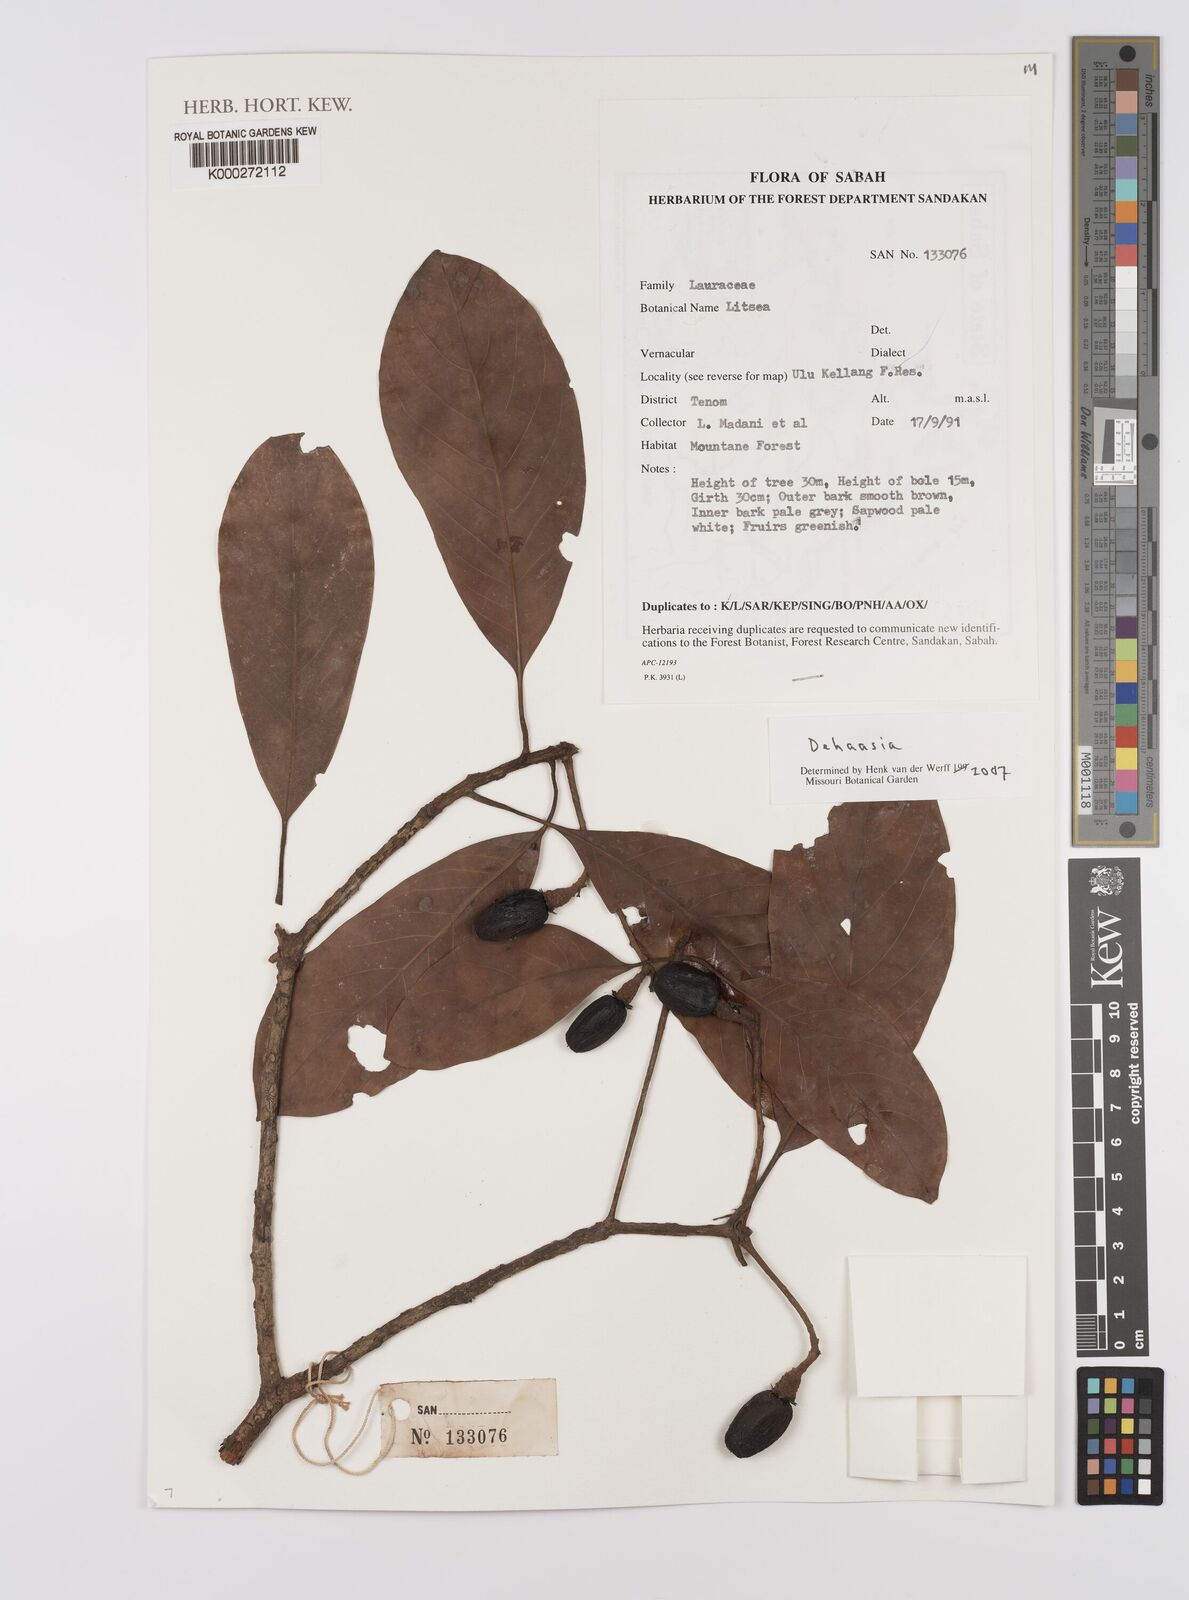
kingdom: Plantae
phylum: Tracheophyta
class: Magnoliopsida
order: Laurales
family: Lauraceae
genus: Dehaasia
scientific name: Dehaasia
